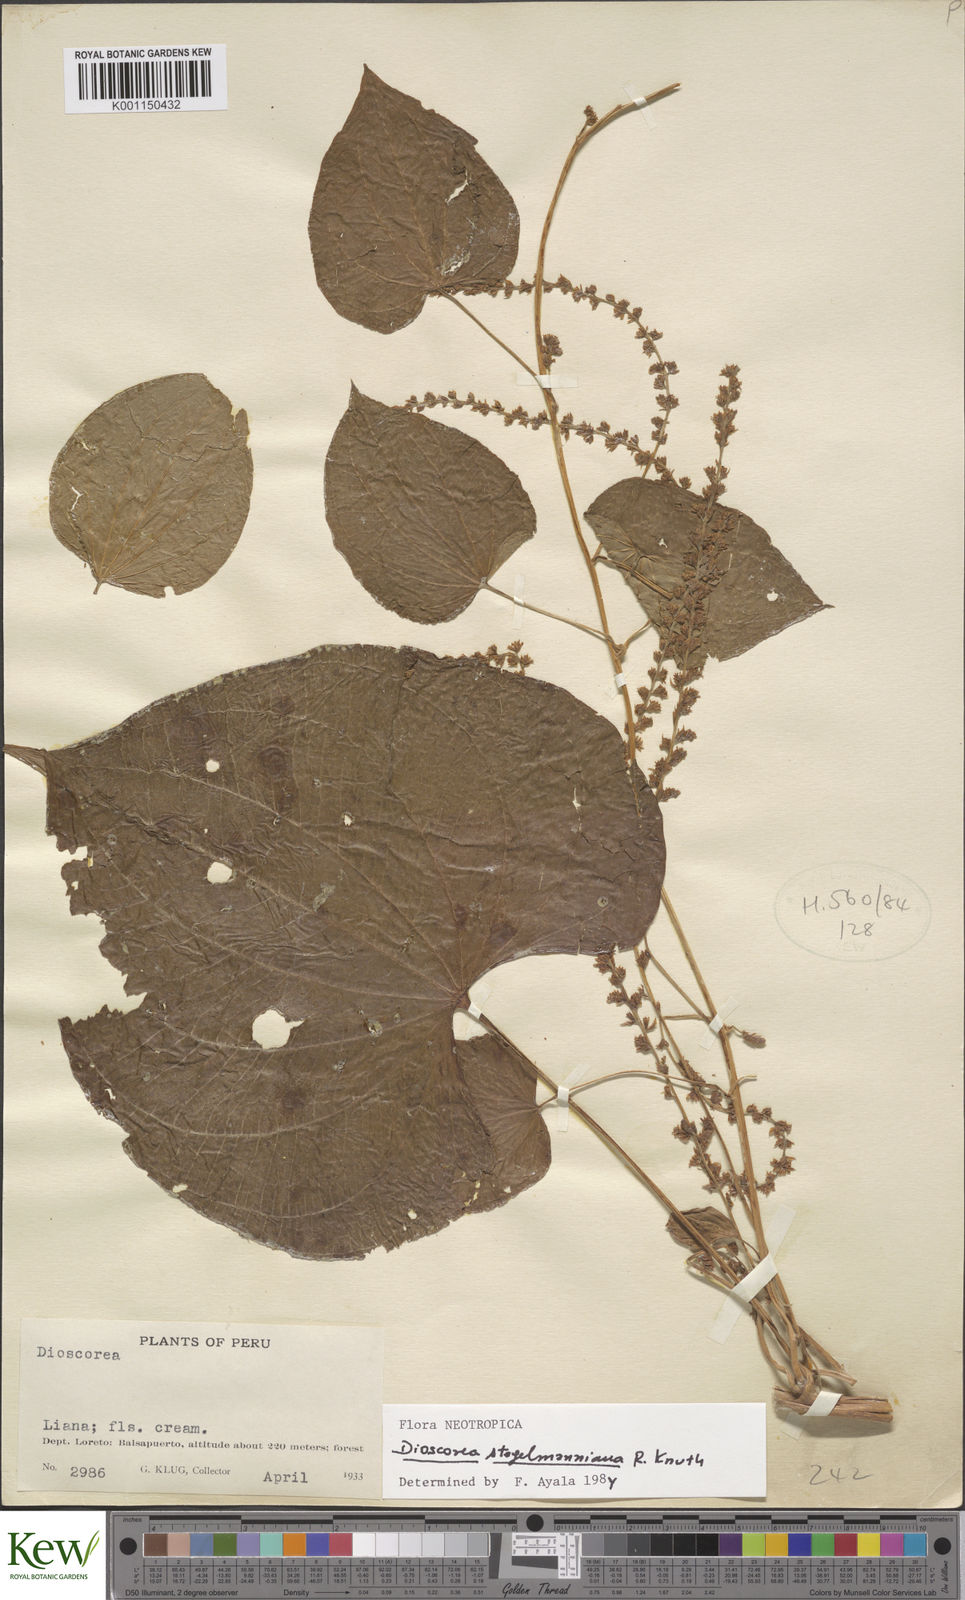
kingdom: Plantae
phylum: Tracheophyta
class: Liliopsida
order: Dioscoreales
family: Dioscoreaceae
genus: Dioscorea
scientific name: Dioscorea stegelmanniana
